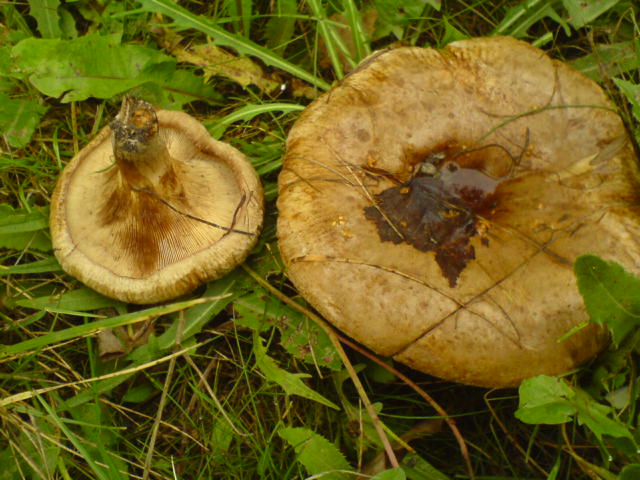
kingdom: Fungi
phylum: Basidiomycota
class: Agaricomycetes
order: Boletales
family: Paxillaceae
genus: Paxillus
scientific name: Paxillus obscurisporus
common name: mahognisporet netbladhat
